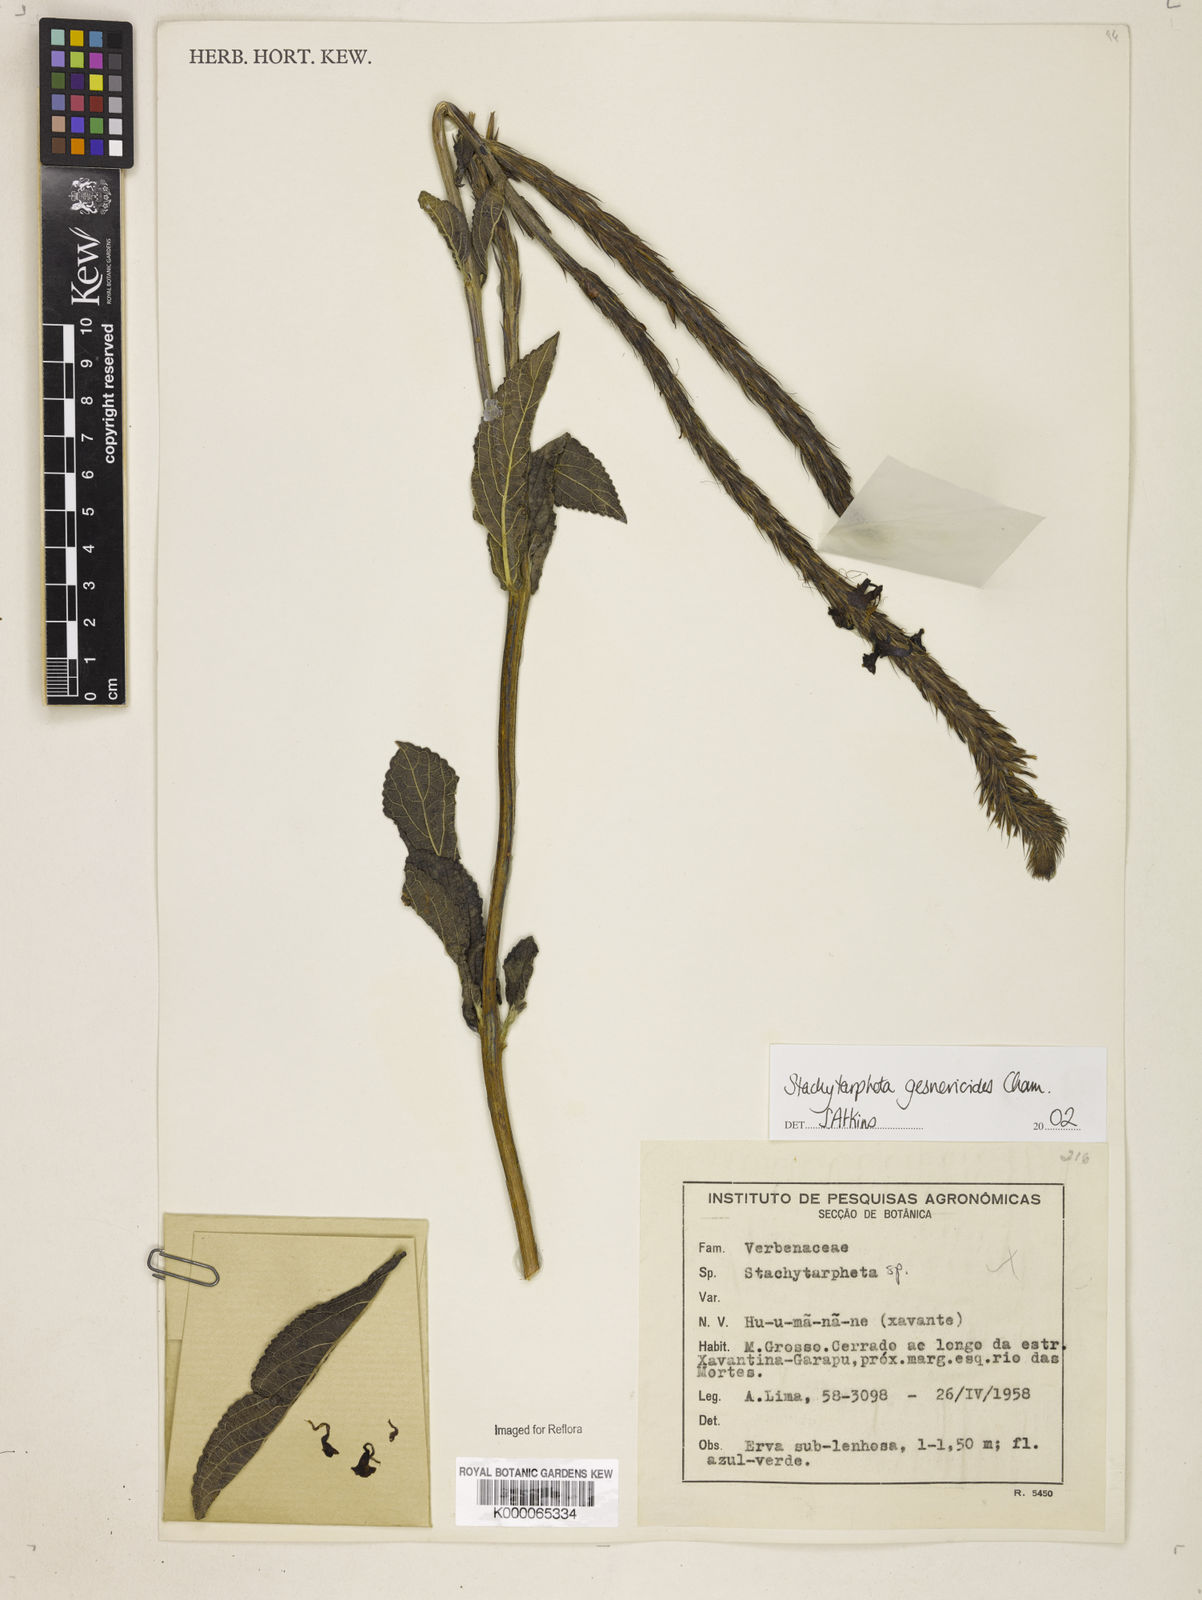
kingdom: Plantae
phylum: Tracheophyta
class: Magnoliopsida
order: Lamiales
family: Verbenaceae
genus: Stachytarpheta
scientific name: Stachytarpheta gesnerioides
